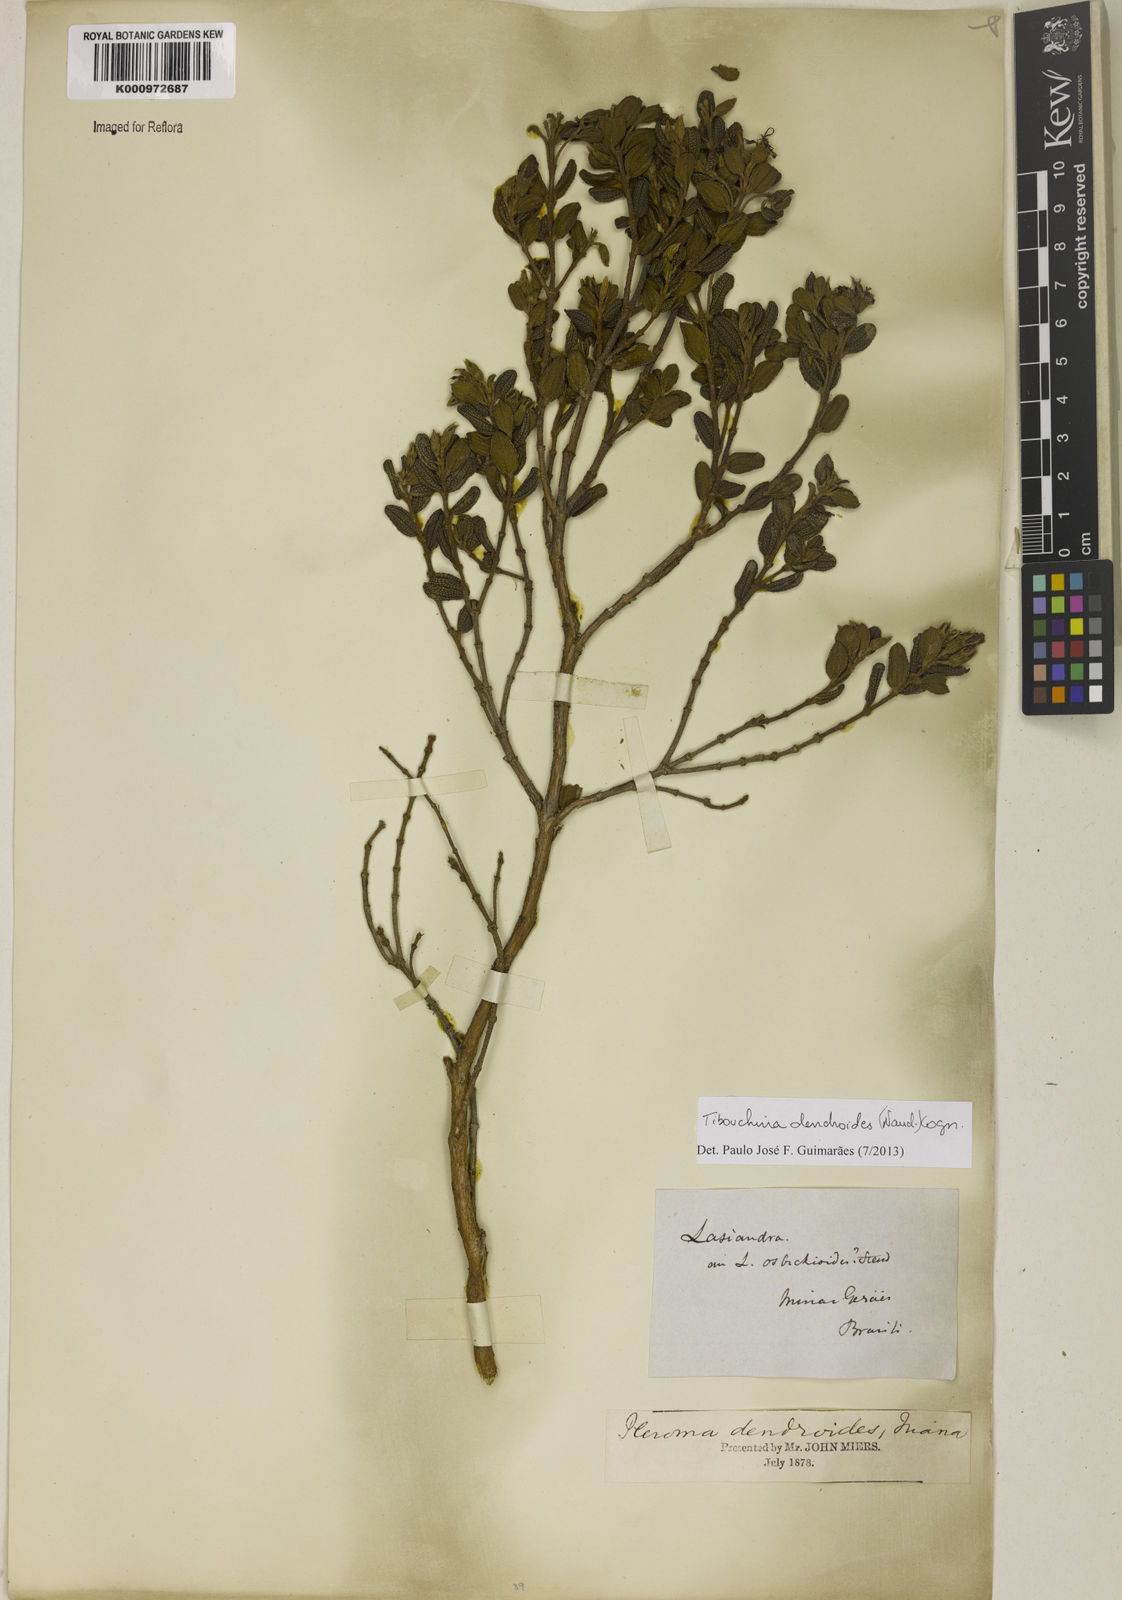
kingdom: Plantae
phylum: Tracheophyta
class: Magnoliopsida
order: Myrtales
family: Melastomataceae
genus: Pleroma
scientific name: Pleroma dendroides
